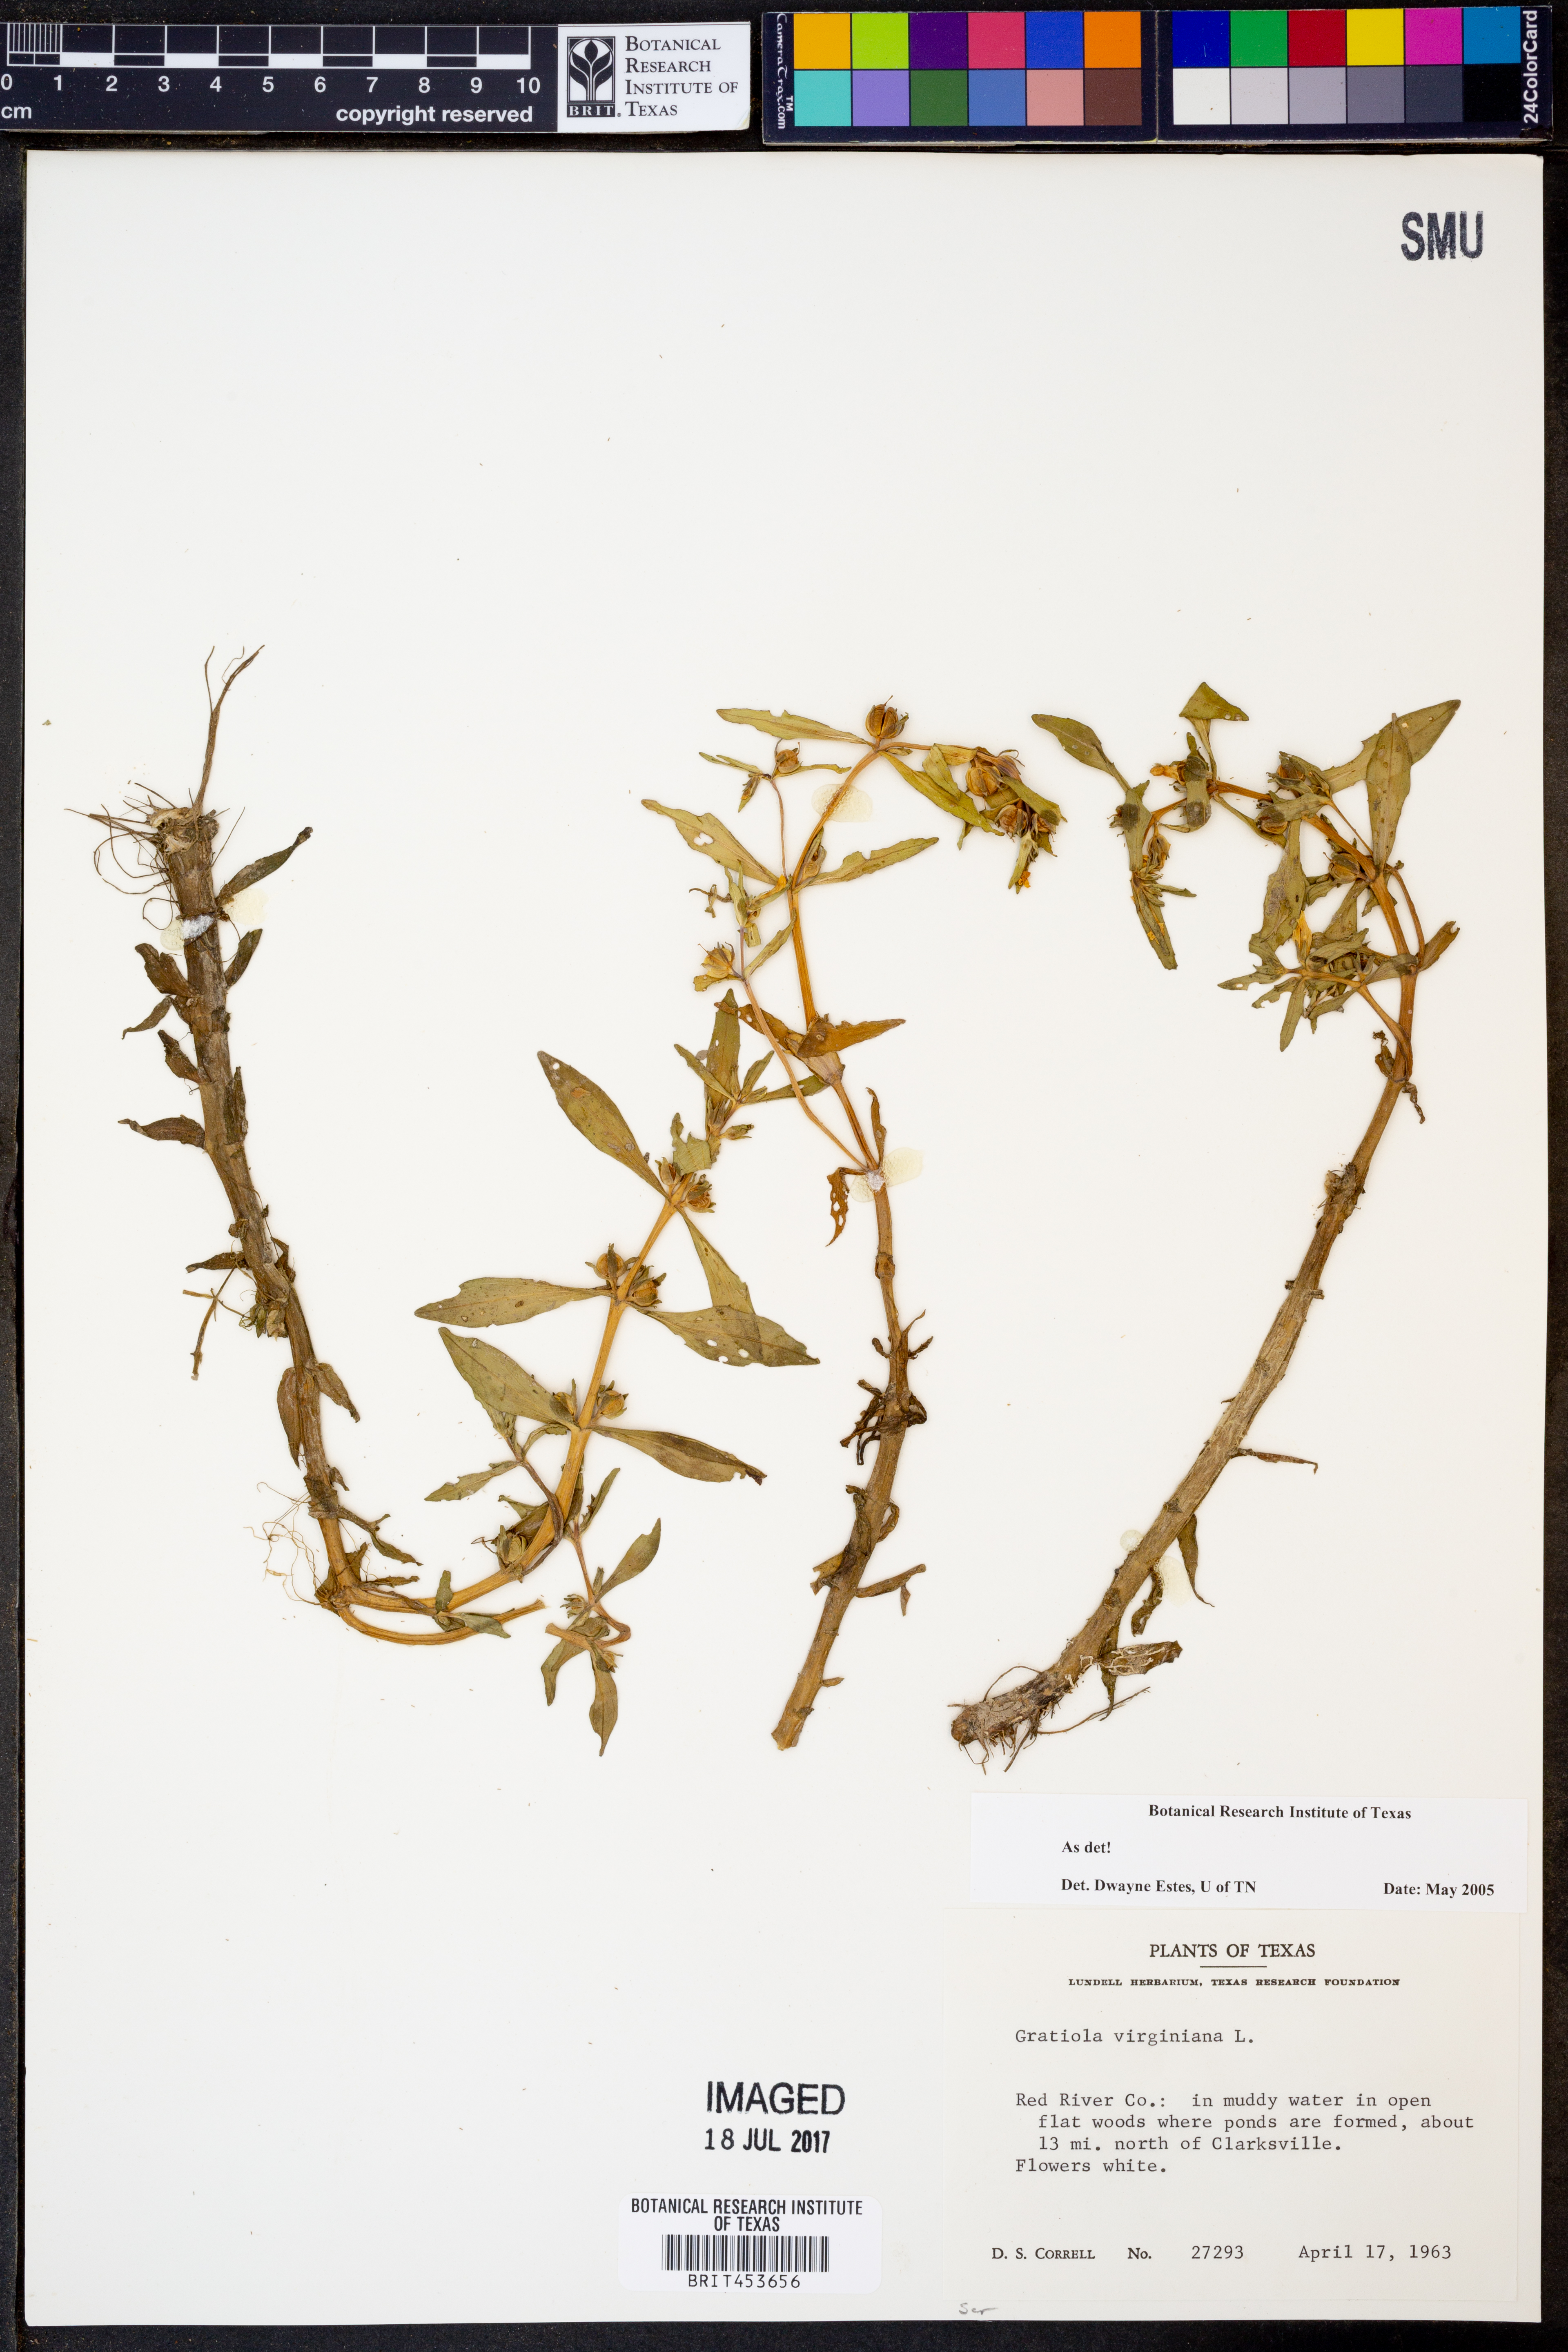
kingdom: Plantae
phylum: Tracheophyta
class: Magnoliopsida
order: Lamiales
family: Plantaginaceae
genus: Gratiola
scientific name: Gratiola virginiana
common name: Roundfruit hedgehyssop
